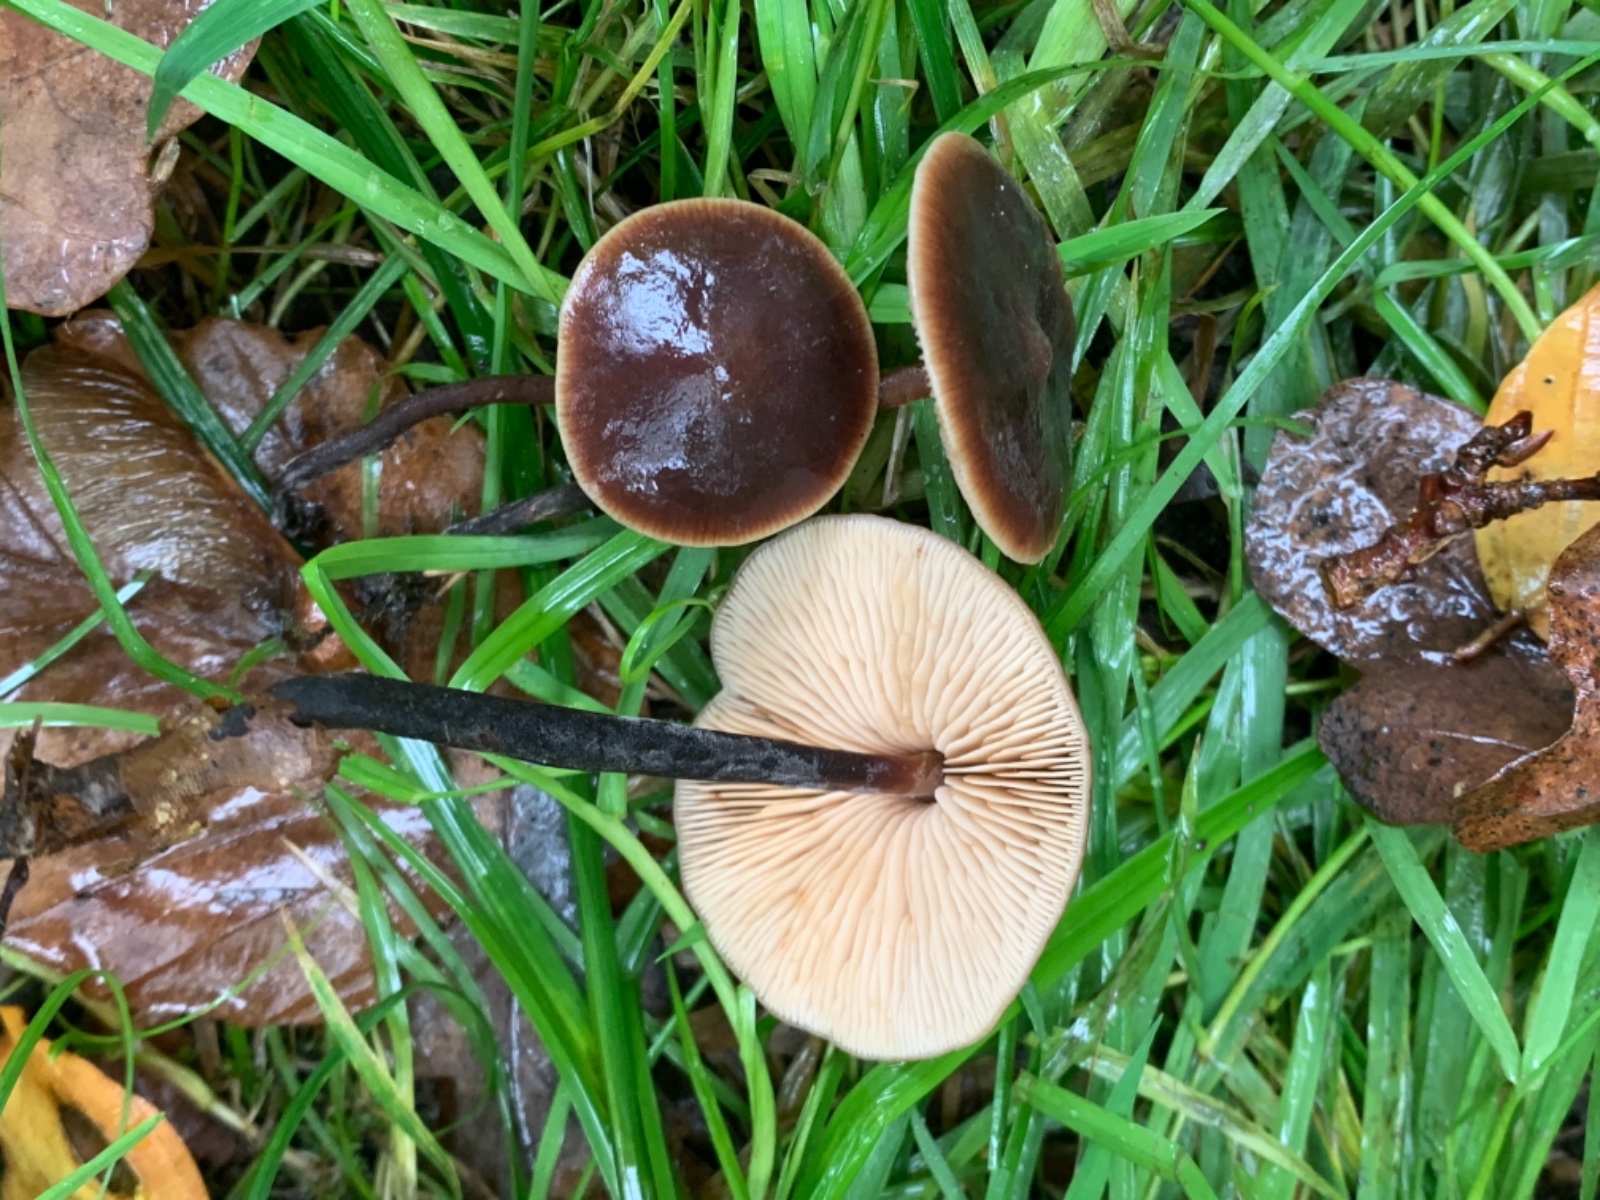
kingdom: Fungi
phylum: Basidiomycota
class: Agaricomycetes
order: Agaricales
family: Macrocystidiaceae
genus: Macrocystidia
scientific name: Macrocystidia cucumis
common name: agurkehat
